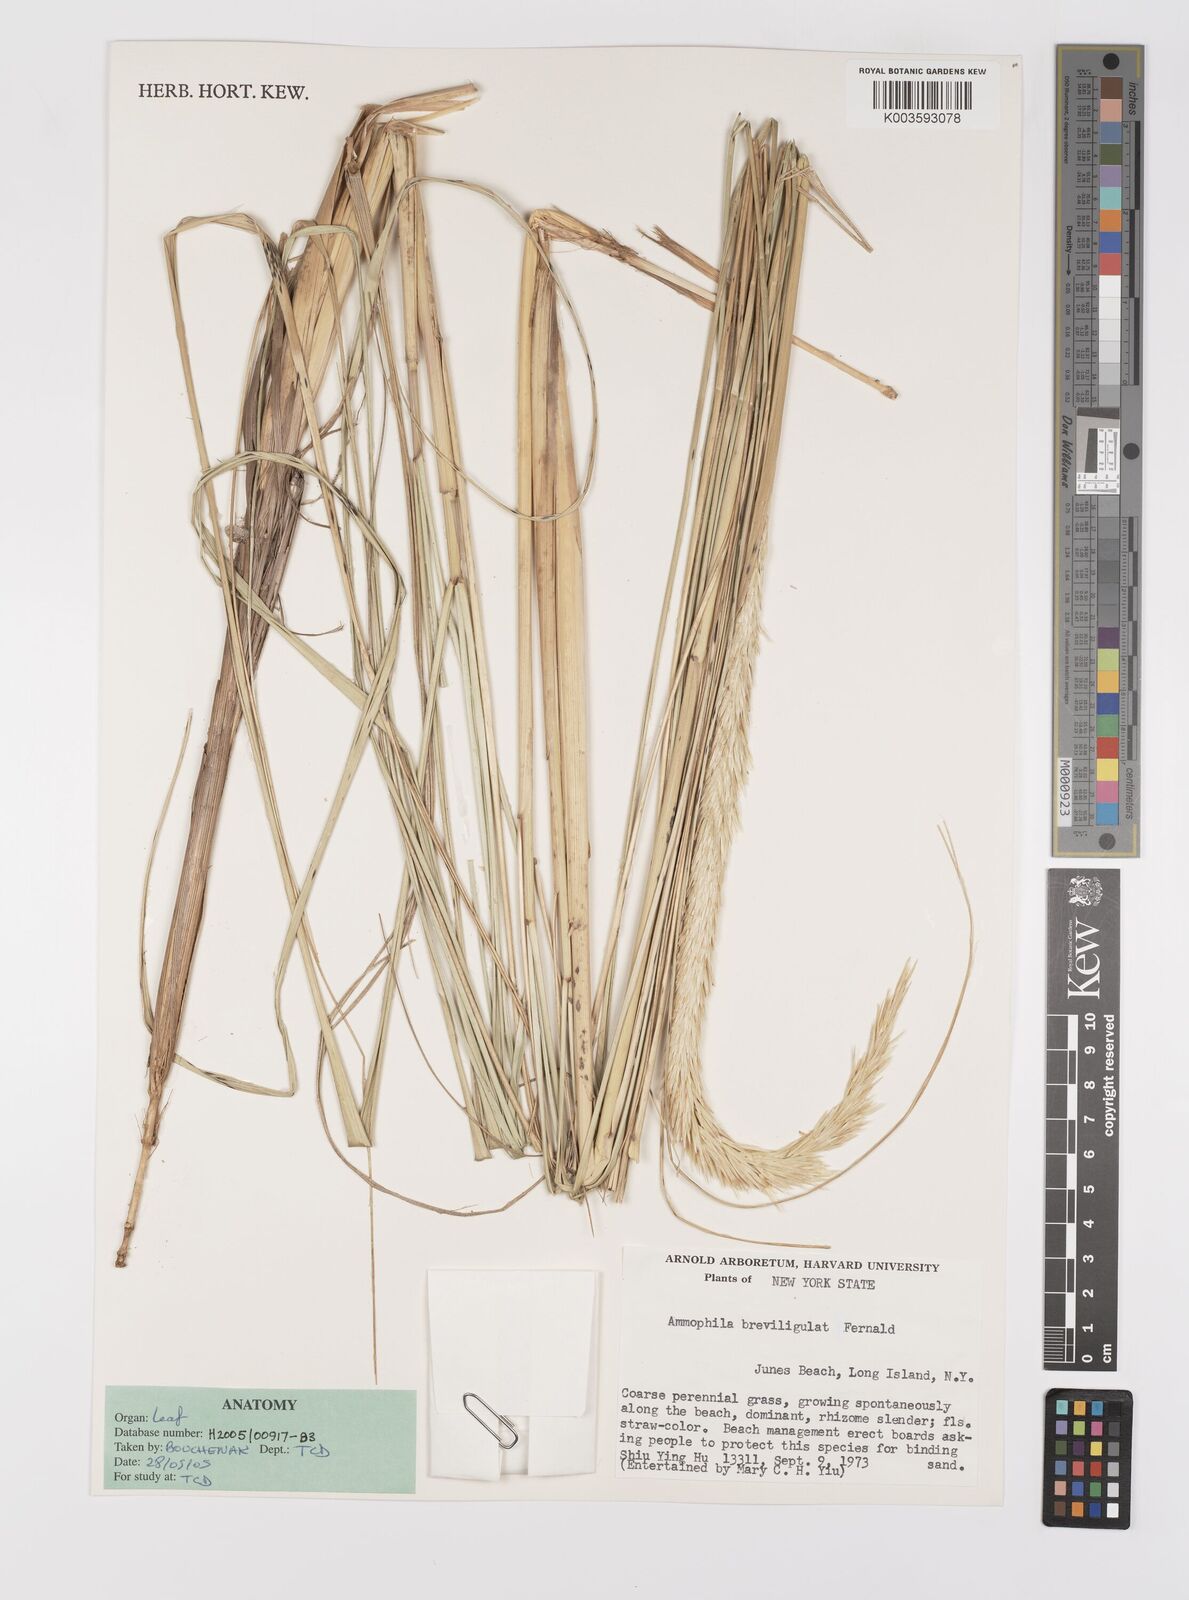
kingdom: Plantae
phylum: Tracheophyta
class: Liliopsida
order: Poales
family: Poaceae
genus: Calamagrostis
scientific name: Calamagrostis breviligulata
